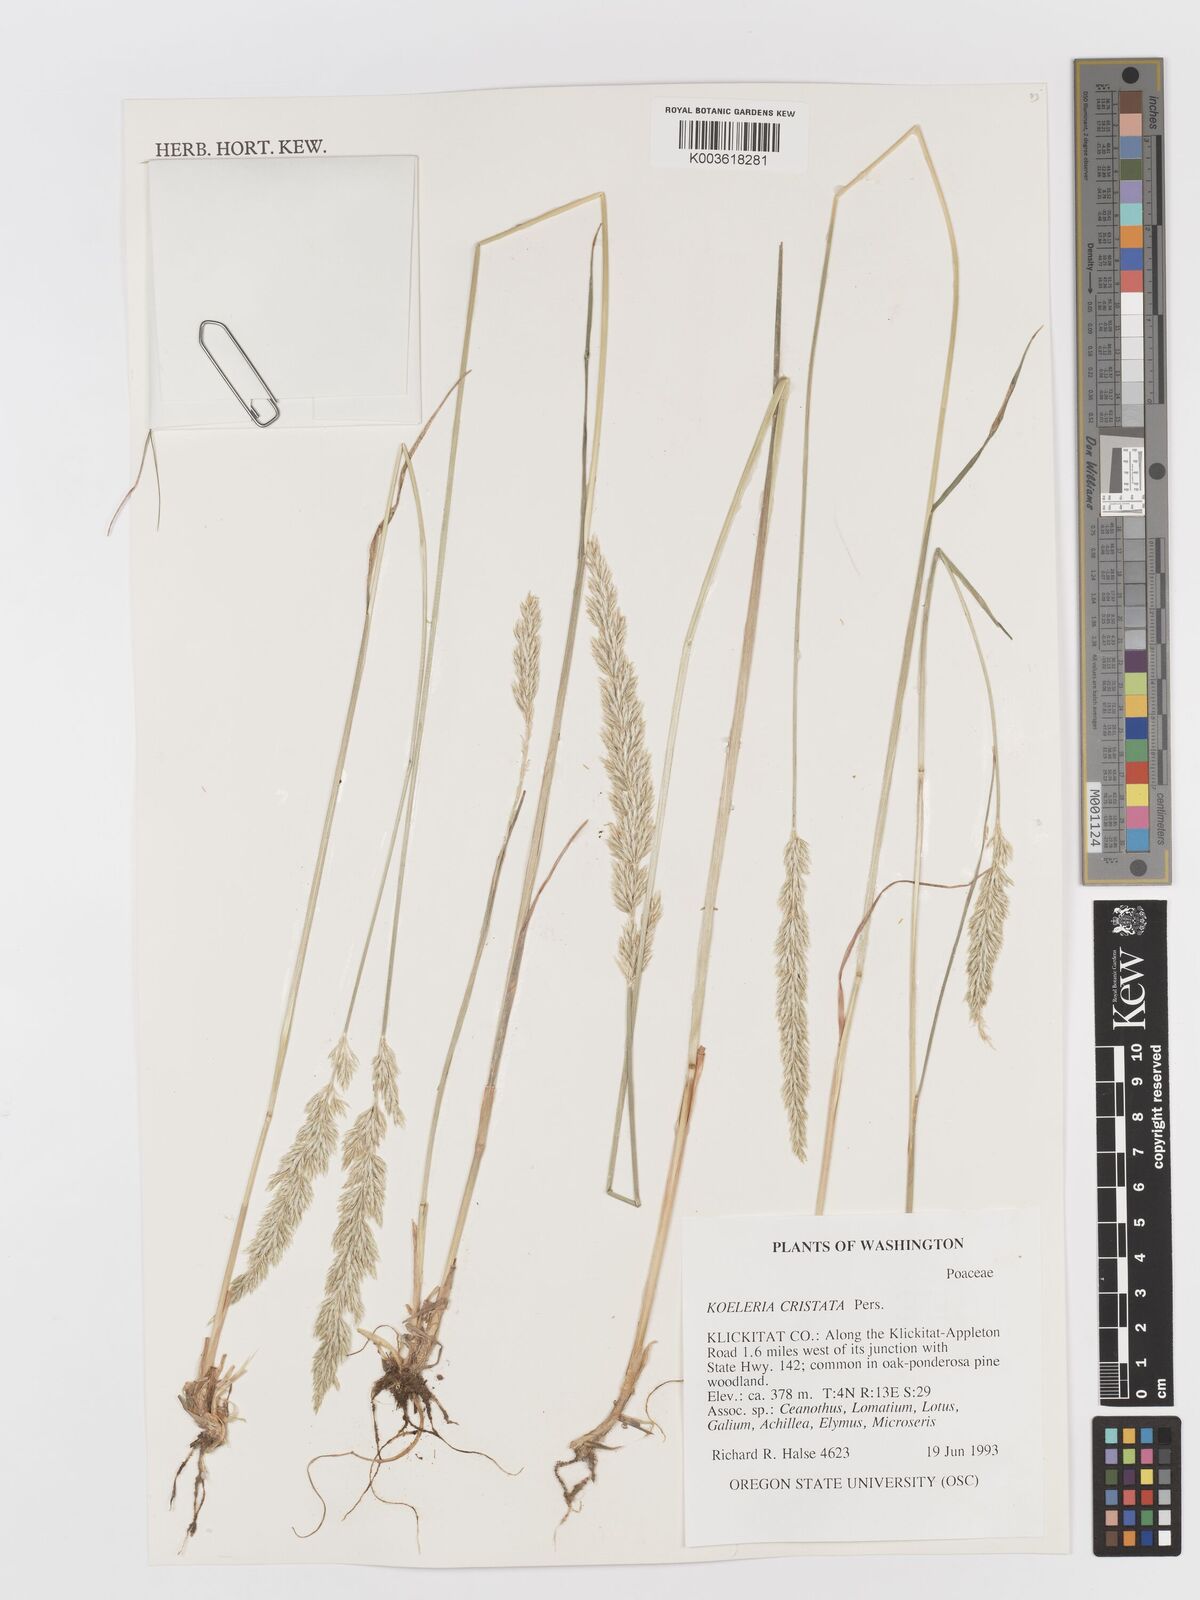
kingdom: Plantae
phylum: Tracheophyta
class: Liliopsida
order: Poales
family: Poaceae
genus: Koeleria
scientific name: Koeleria macrantha
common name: Crested hair-grass
